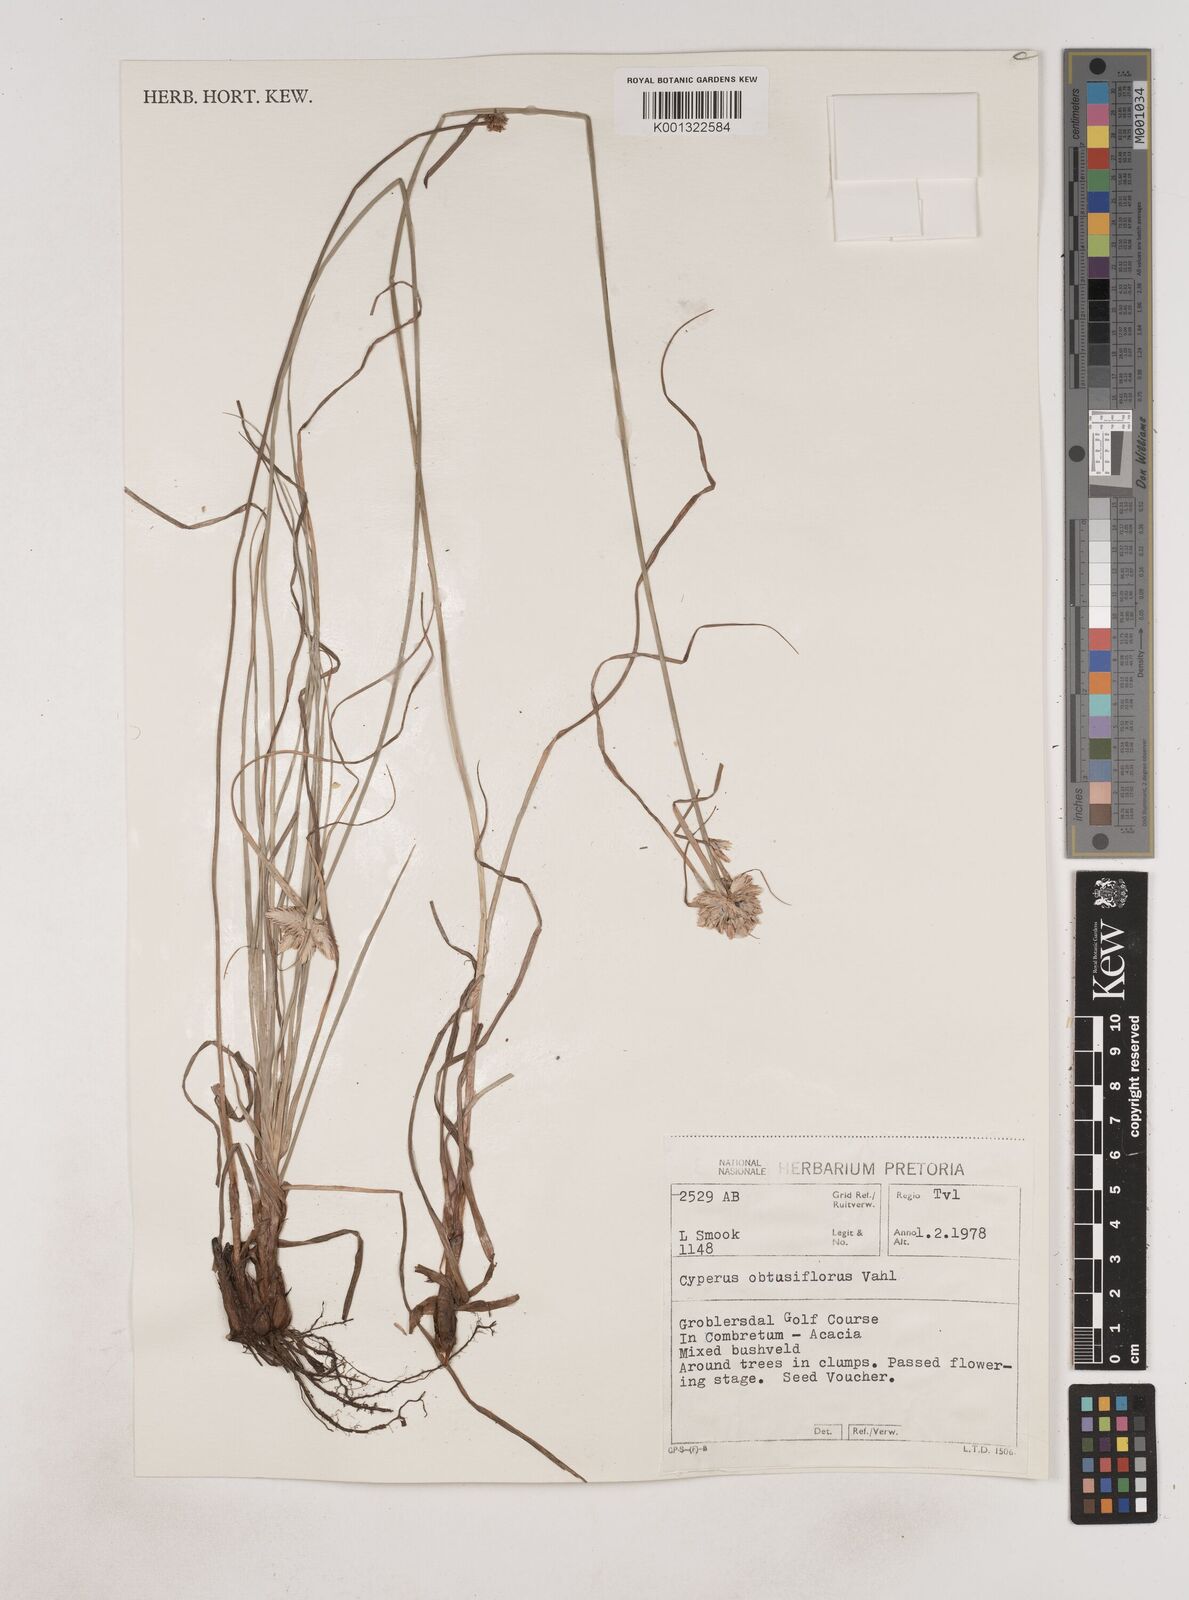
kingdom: Plantae
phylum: Tracheophyta
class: Liliopsida
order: Poales
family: Cyperaceae
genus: Cyperus
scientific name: Cyperus niveus
